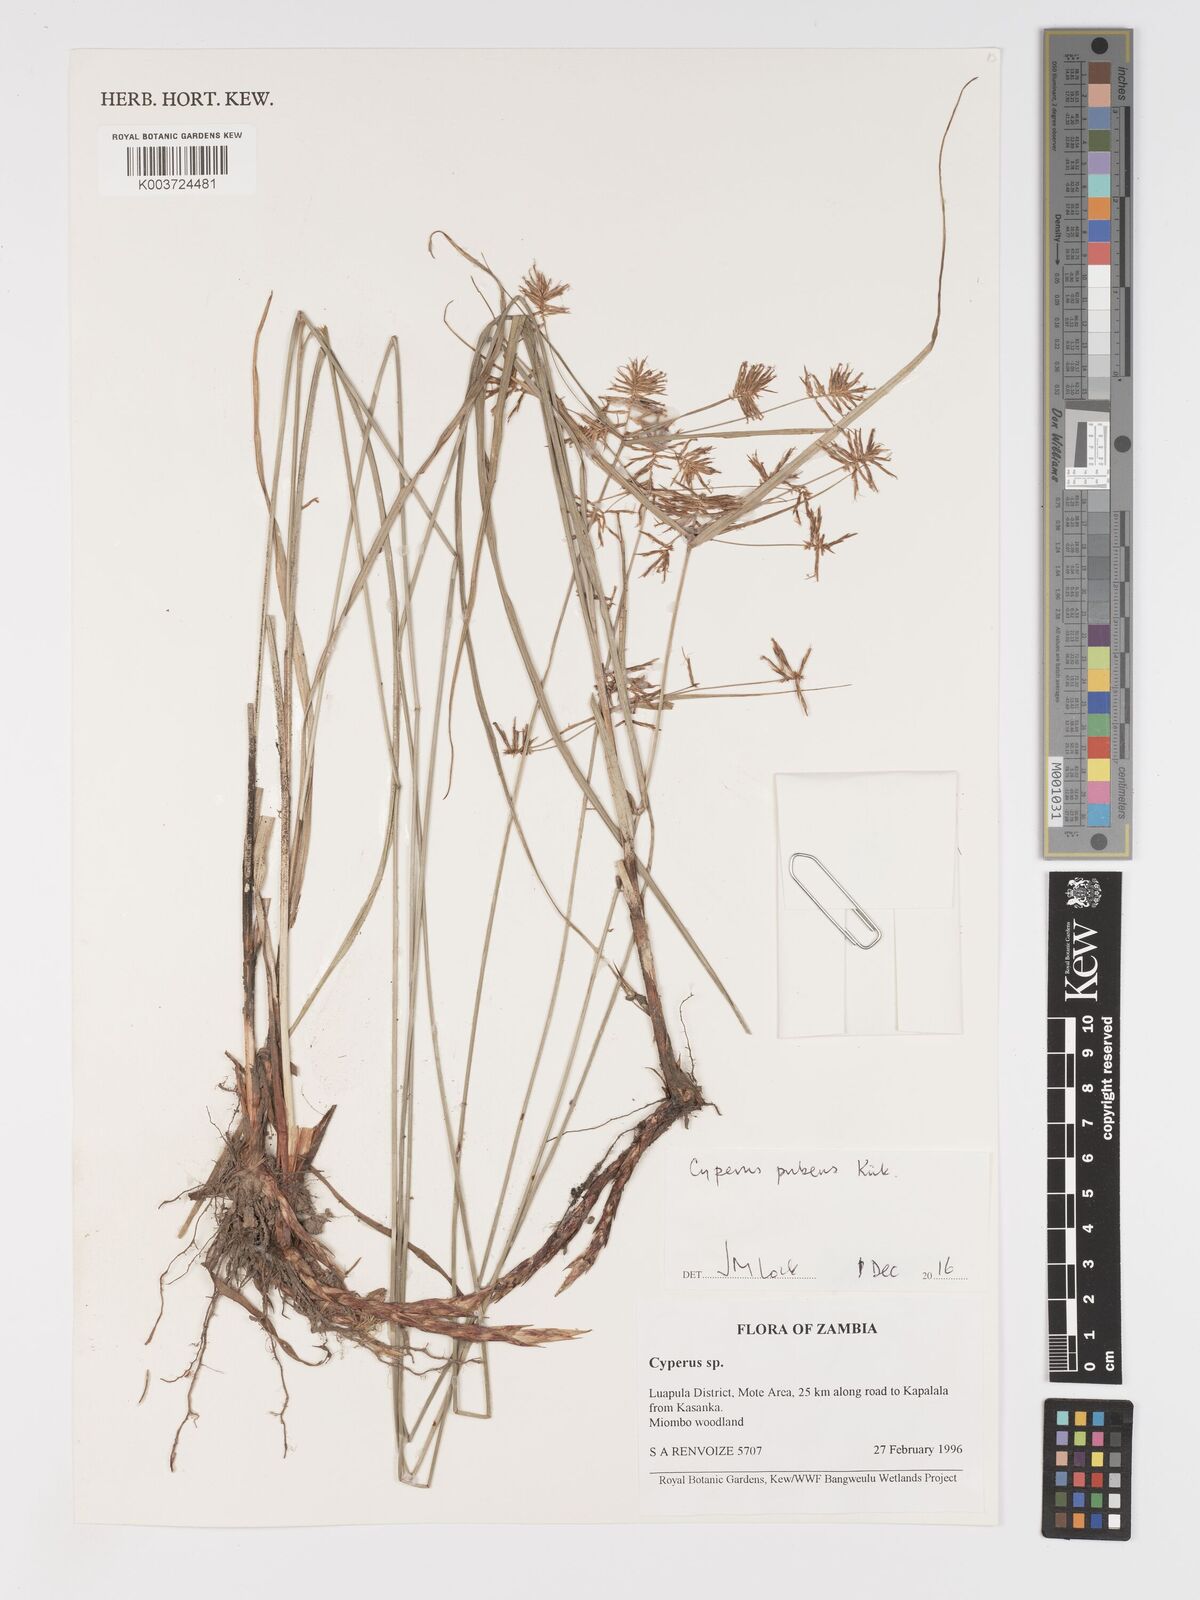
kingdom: Plantae
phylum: Tracheophyta
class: Liliopsida
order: Poales
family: Cyperaceae
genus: Cyperus
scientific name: Cyperus pubens
